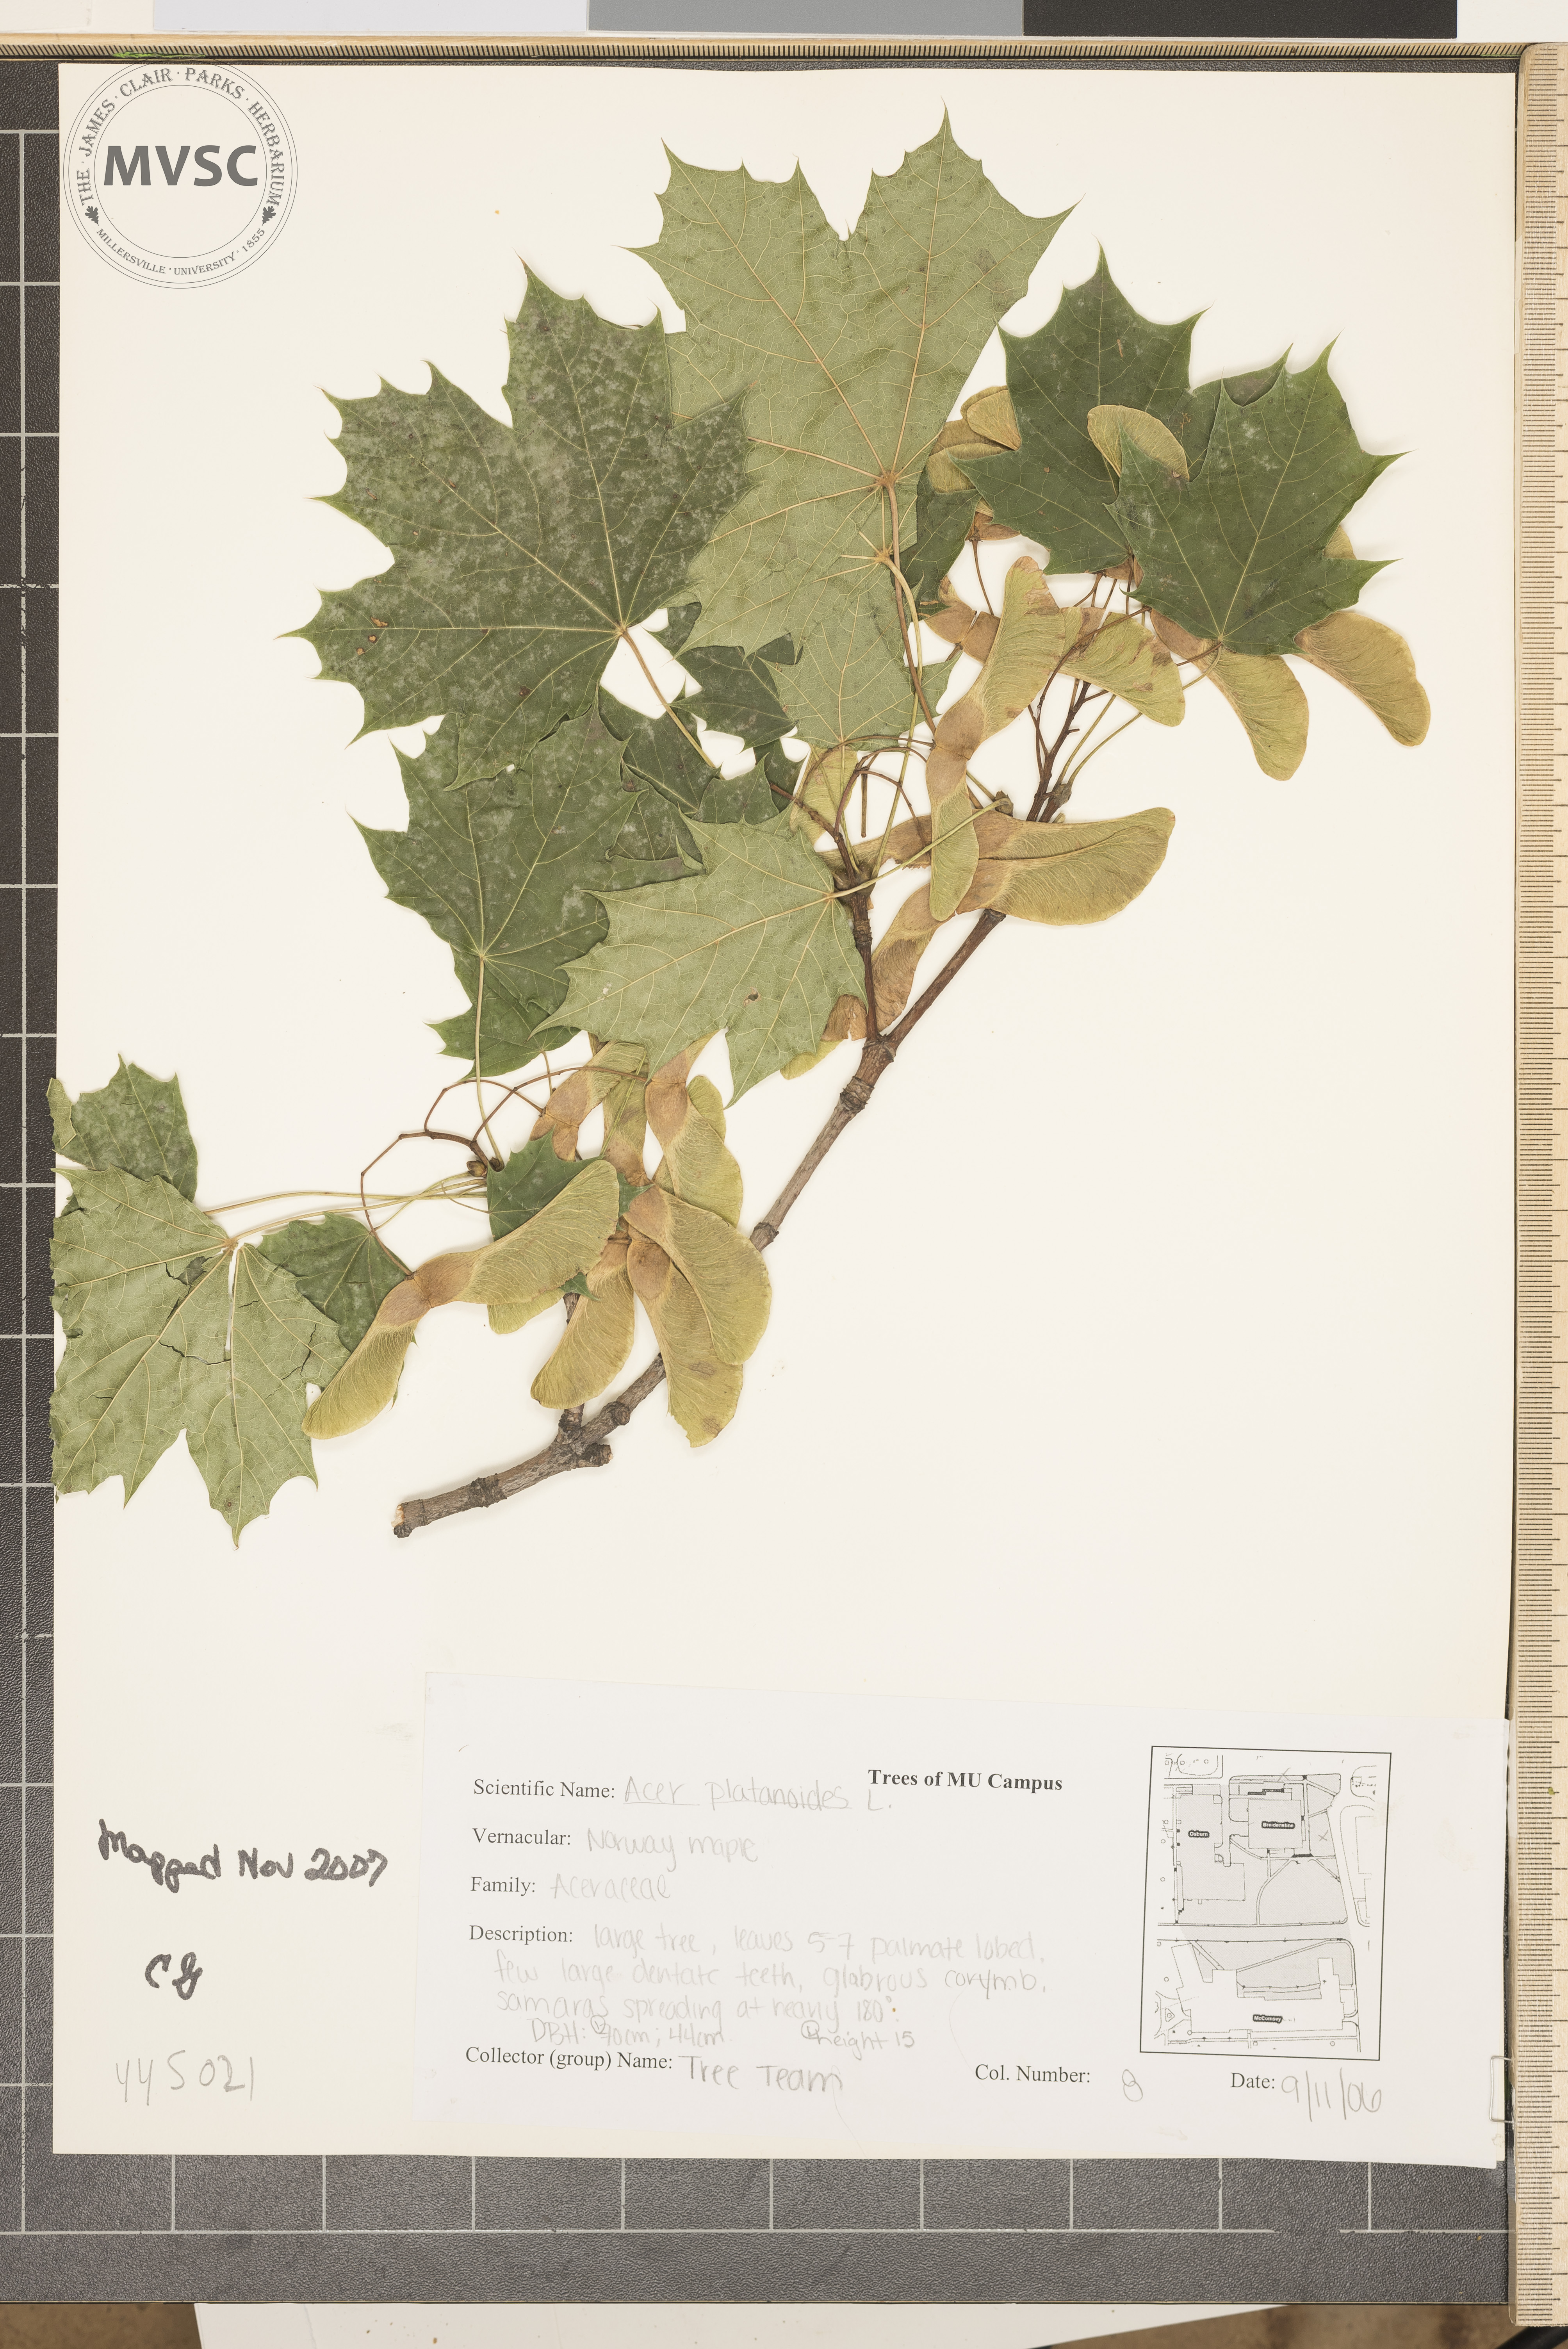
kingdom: Plantae
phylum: Tracheophyta
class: Magnoliopsida
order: Sapindales
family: Sapindaceae
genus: Acer
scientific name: Acer platanoides
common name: Norway Maple
